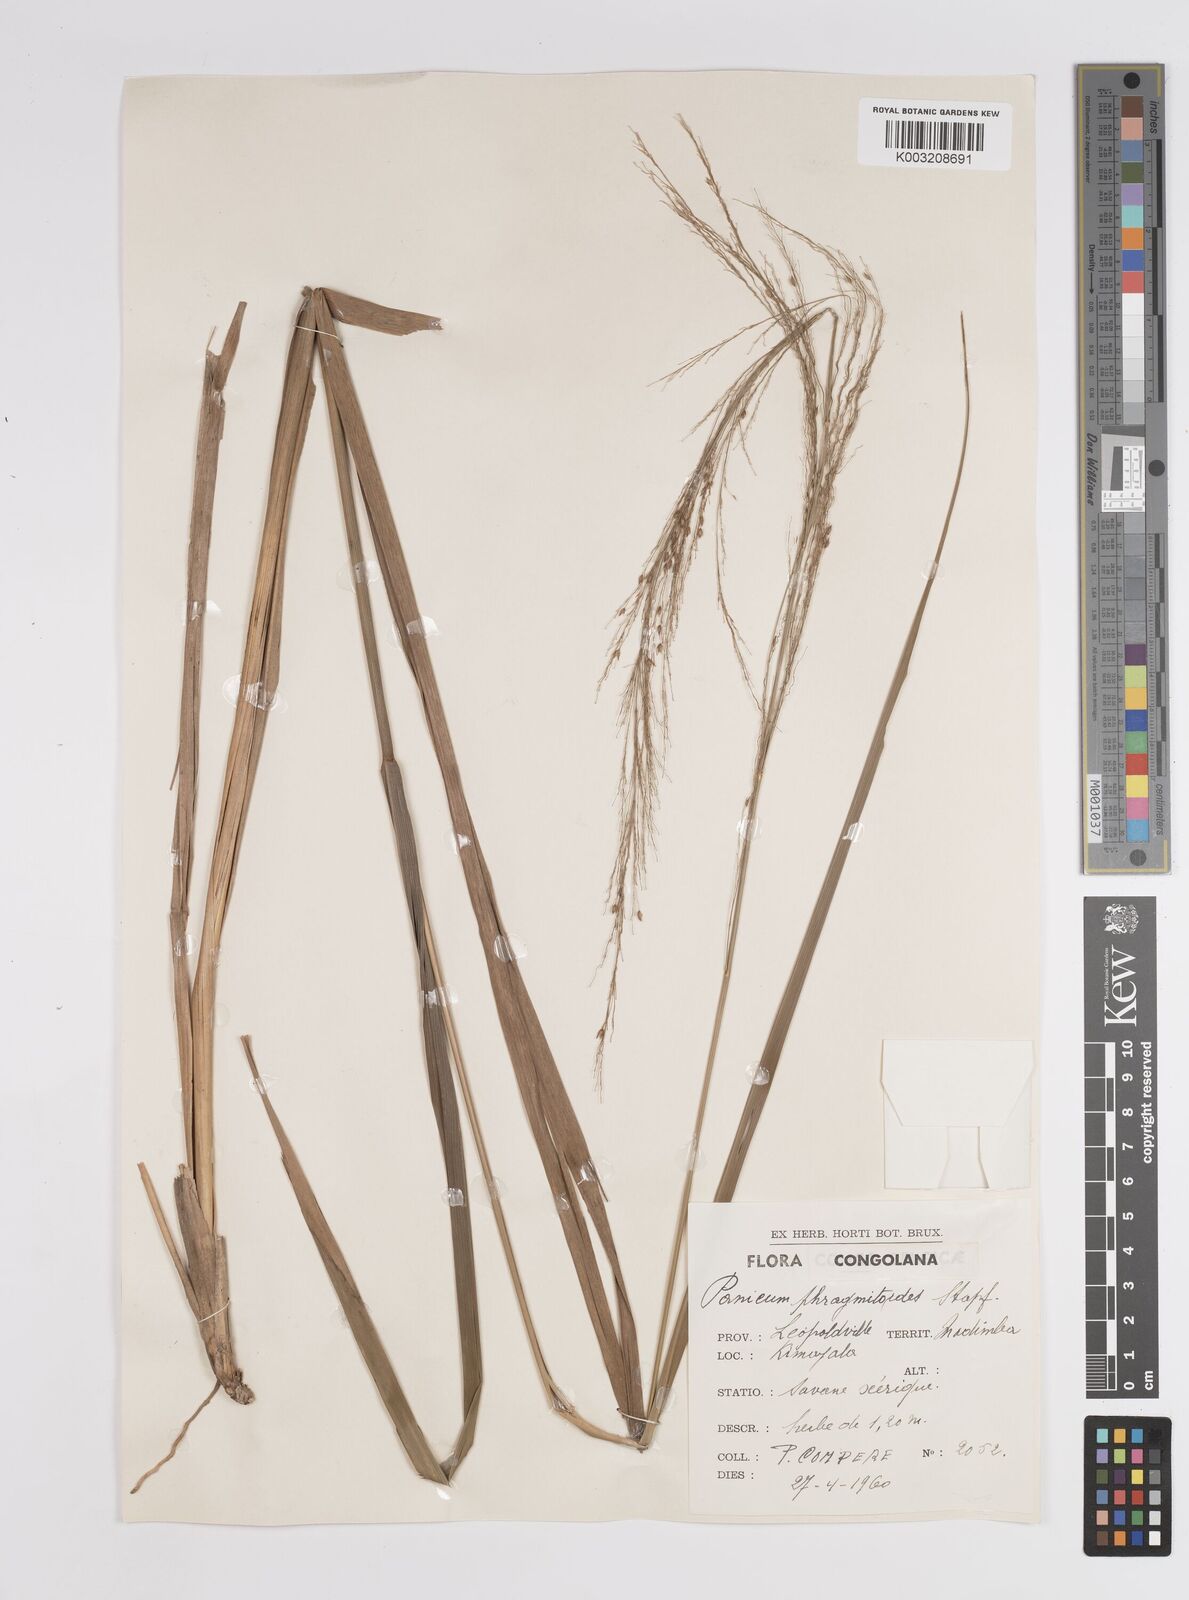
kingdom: Plantae
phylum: Tracheophyta
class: Liliopsida
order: Poales
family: Poaceae
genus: Panicum
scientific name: Panicum phragmitoides
